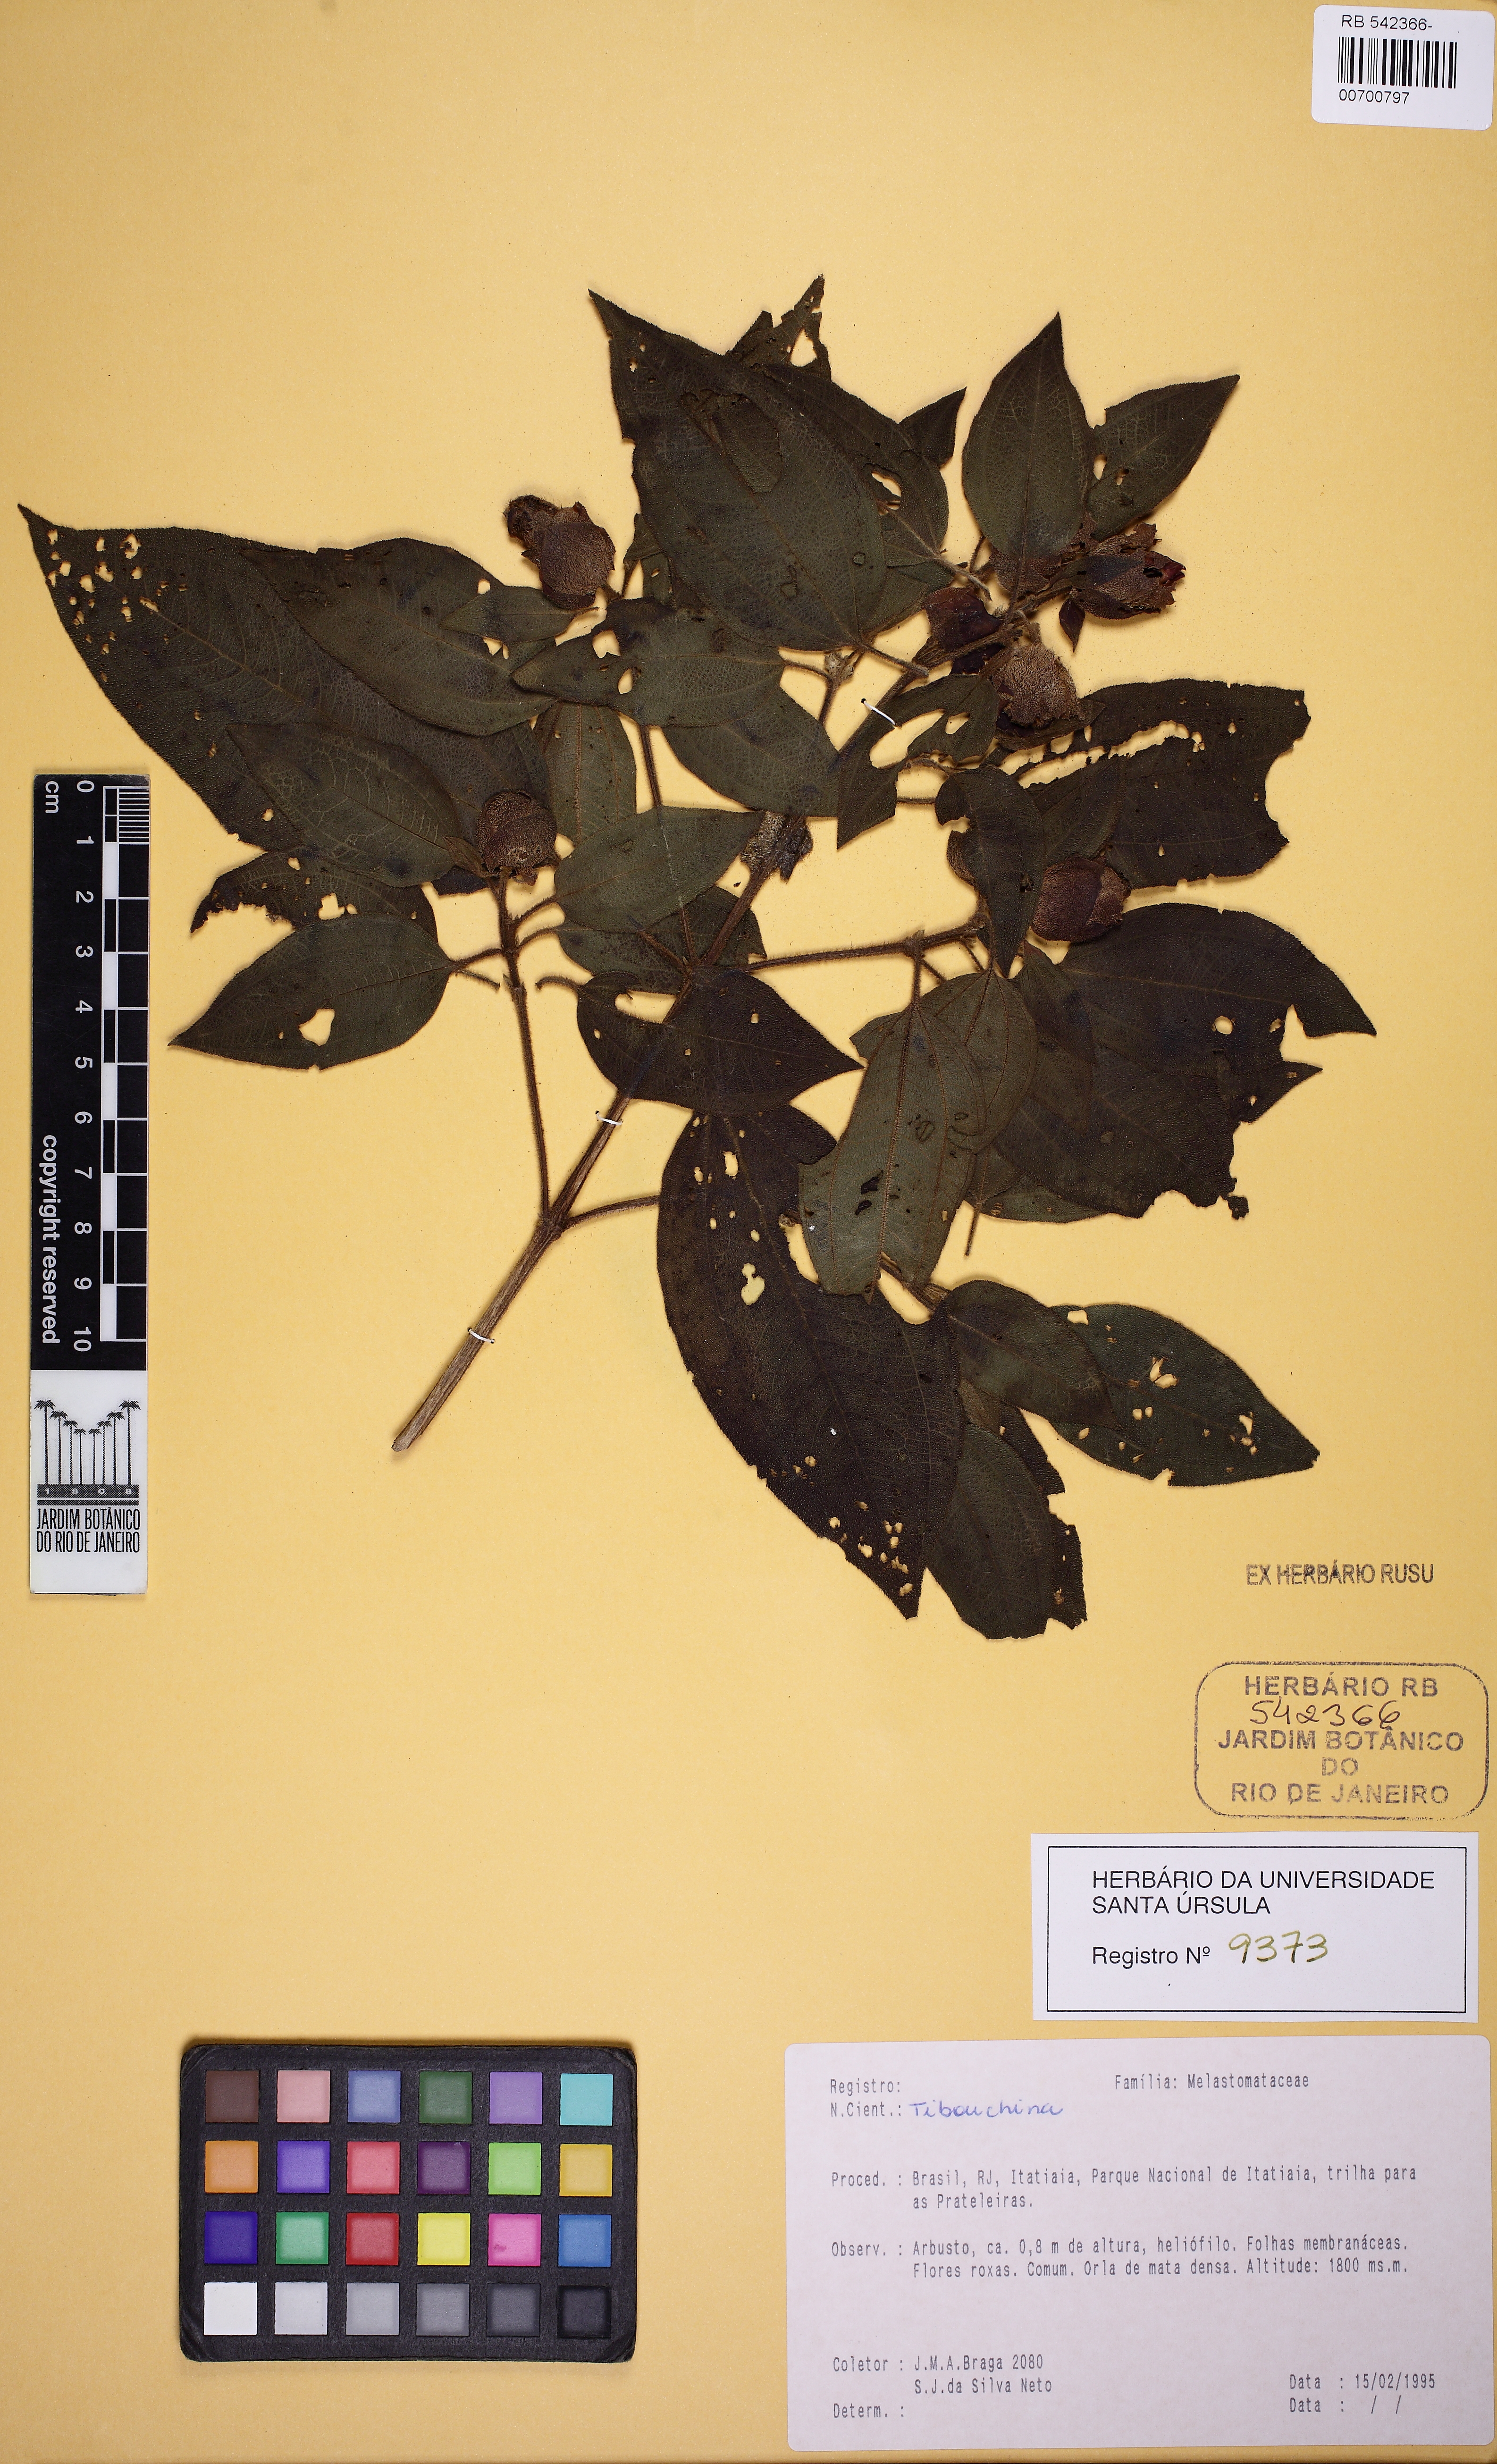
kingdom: Plantae
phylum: Tracheophyta
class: Magnoliopsida
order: Myrtales
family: Melastomataceae
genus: Tibouchina
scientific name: Tibouchina
